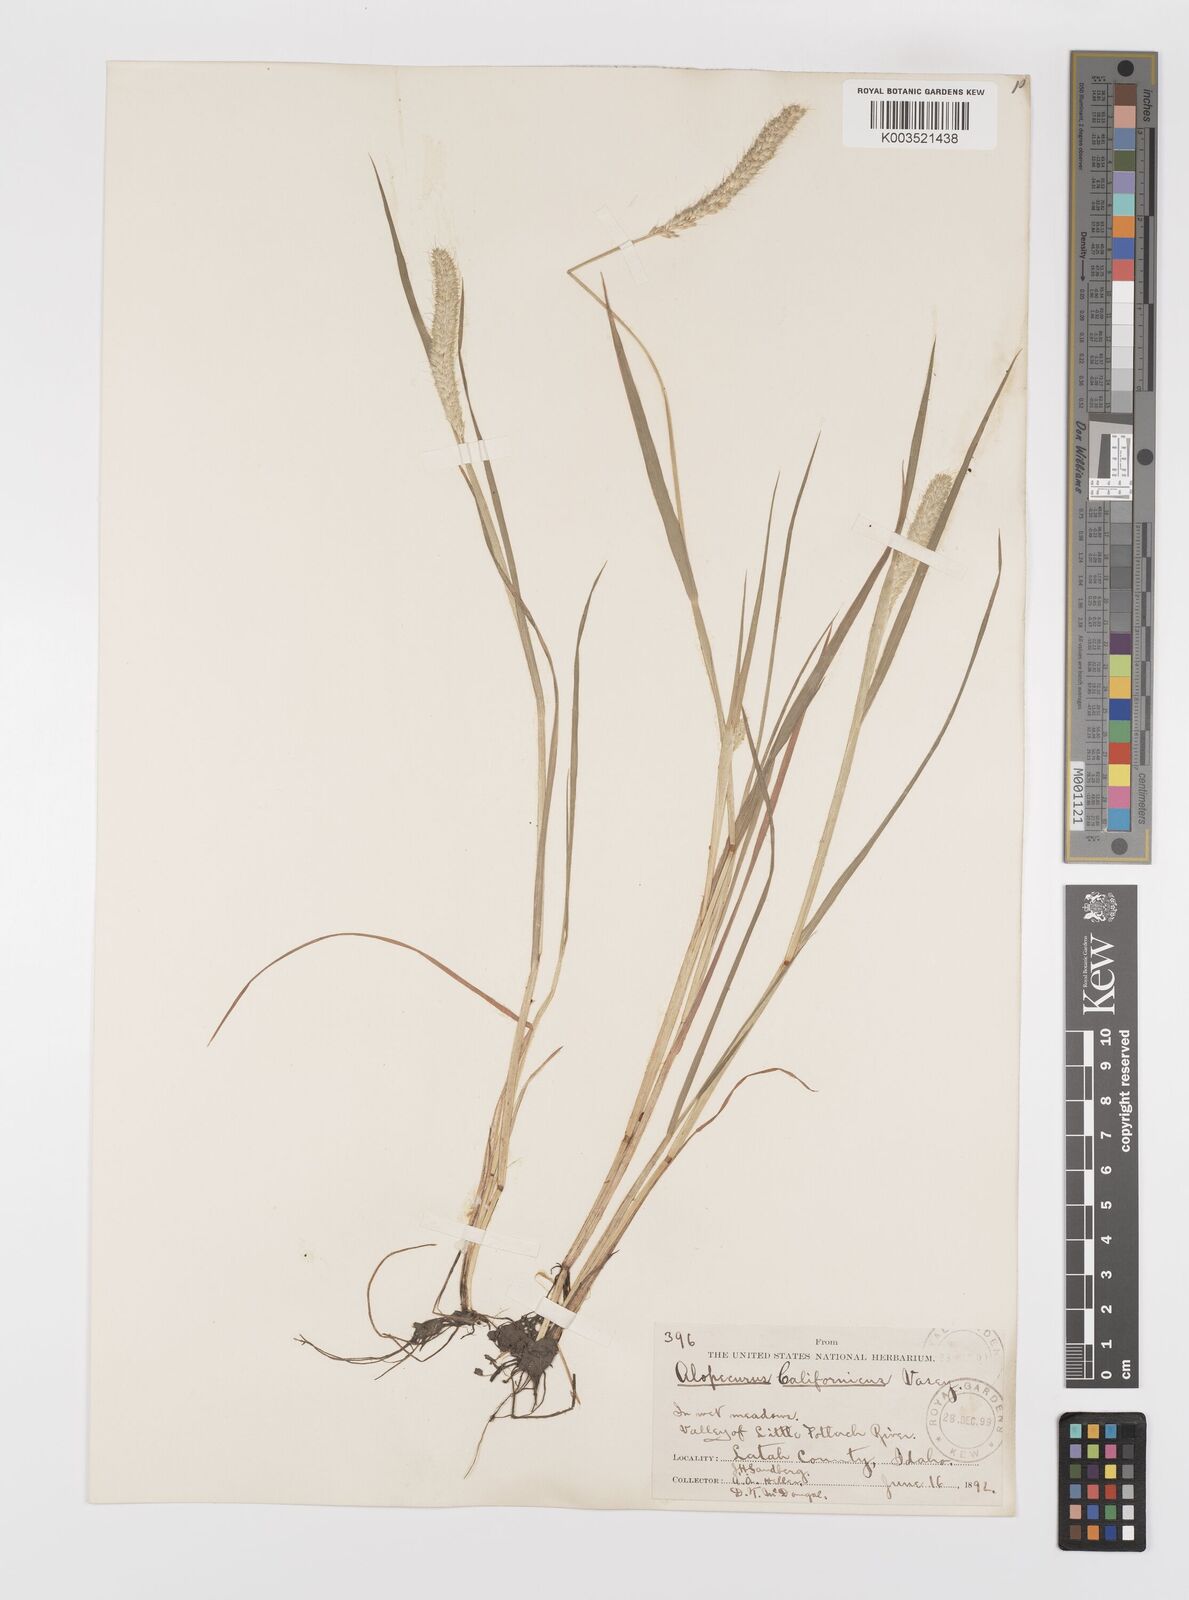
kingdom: Plantae
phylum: Tracheophyta
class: Liliopsida
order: Poales
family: Poaceae
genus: Alopecurus
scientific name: Alopecurus saccatus
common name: Pacific foxtail
